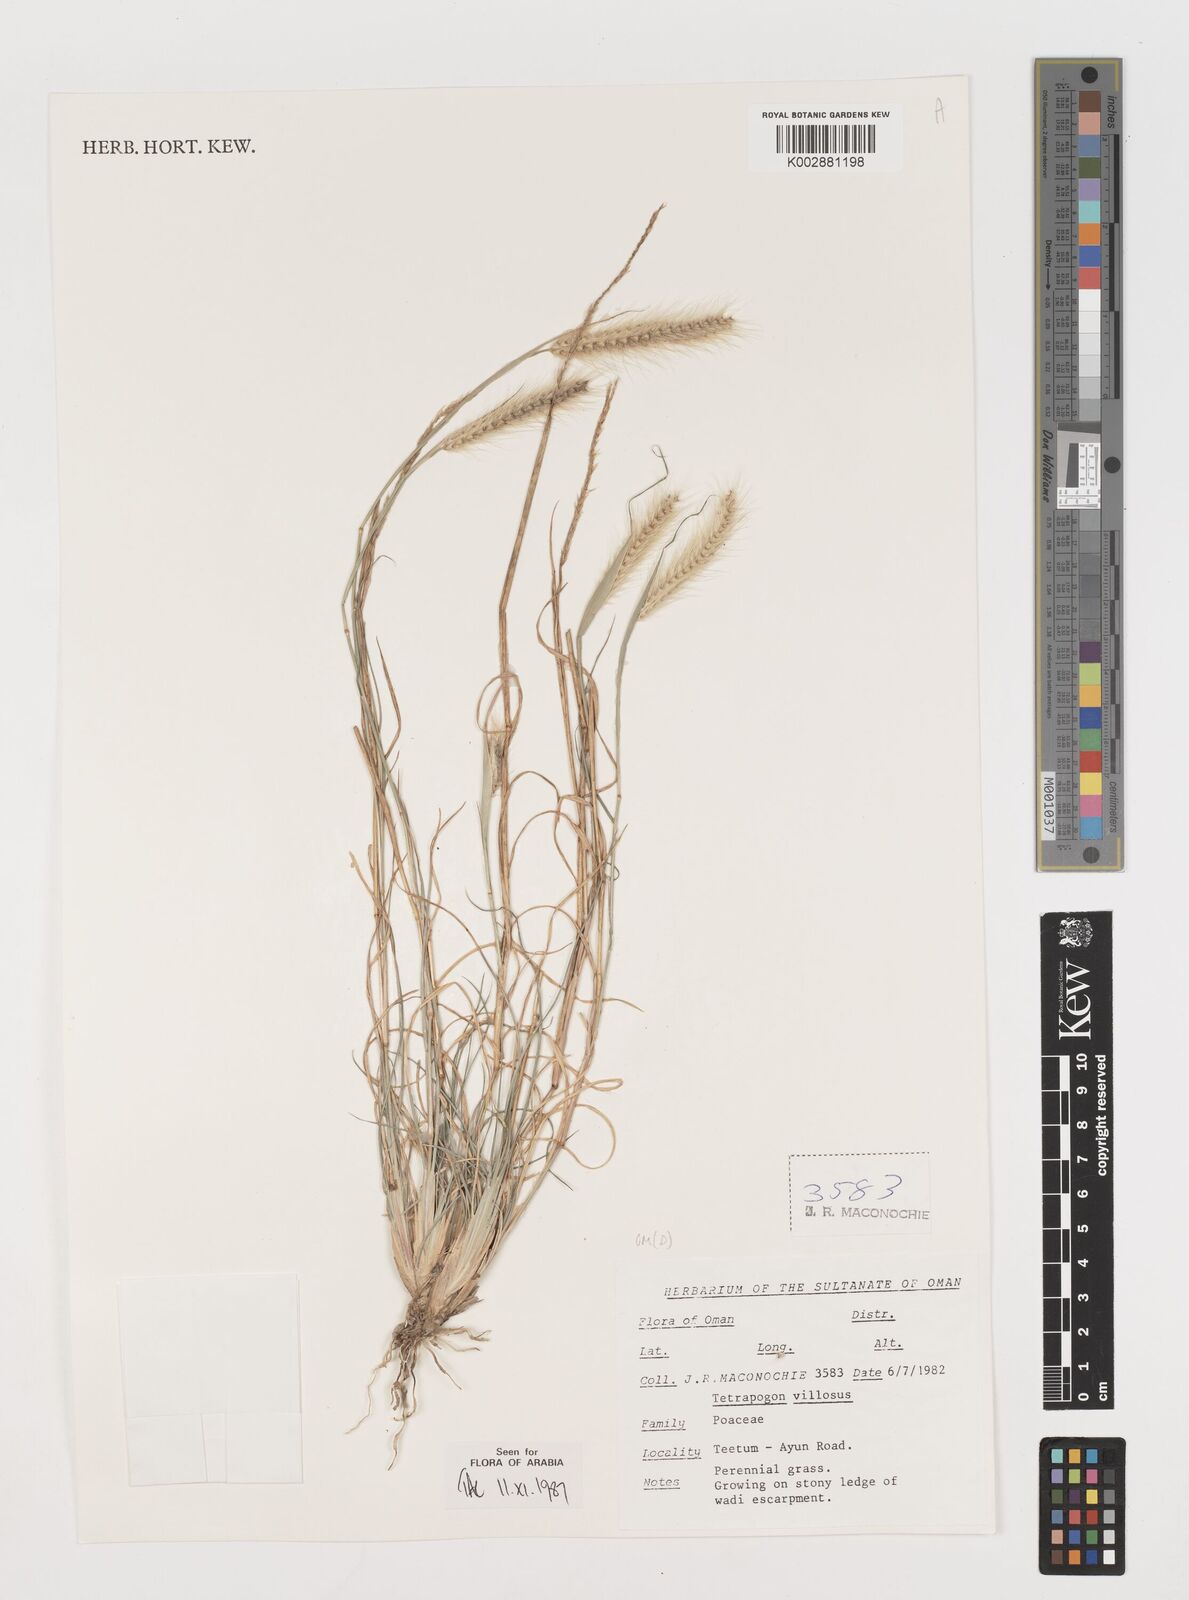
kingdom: Plantae
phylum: Tracheophyta
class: Liliopsida
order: Poales
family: Poaceae
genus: Tetrapogon
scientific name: Tetrapogon villosus
